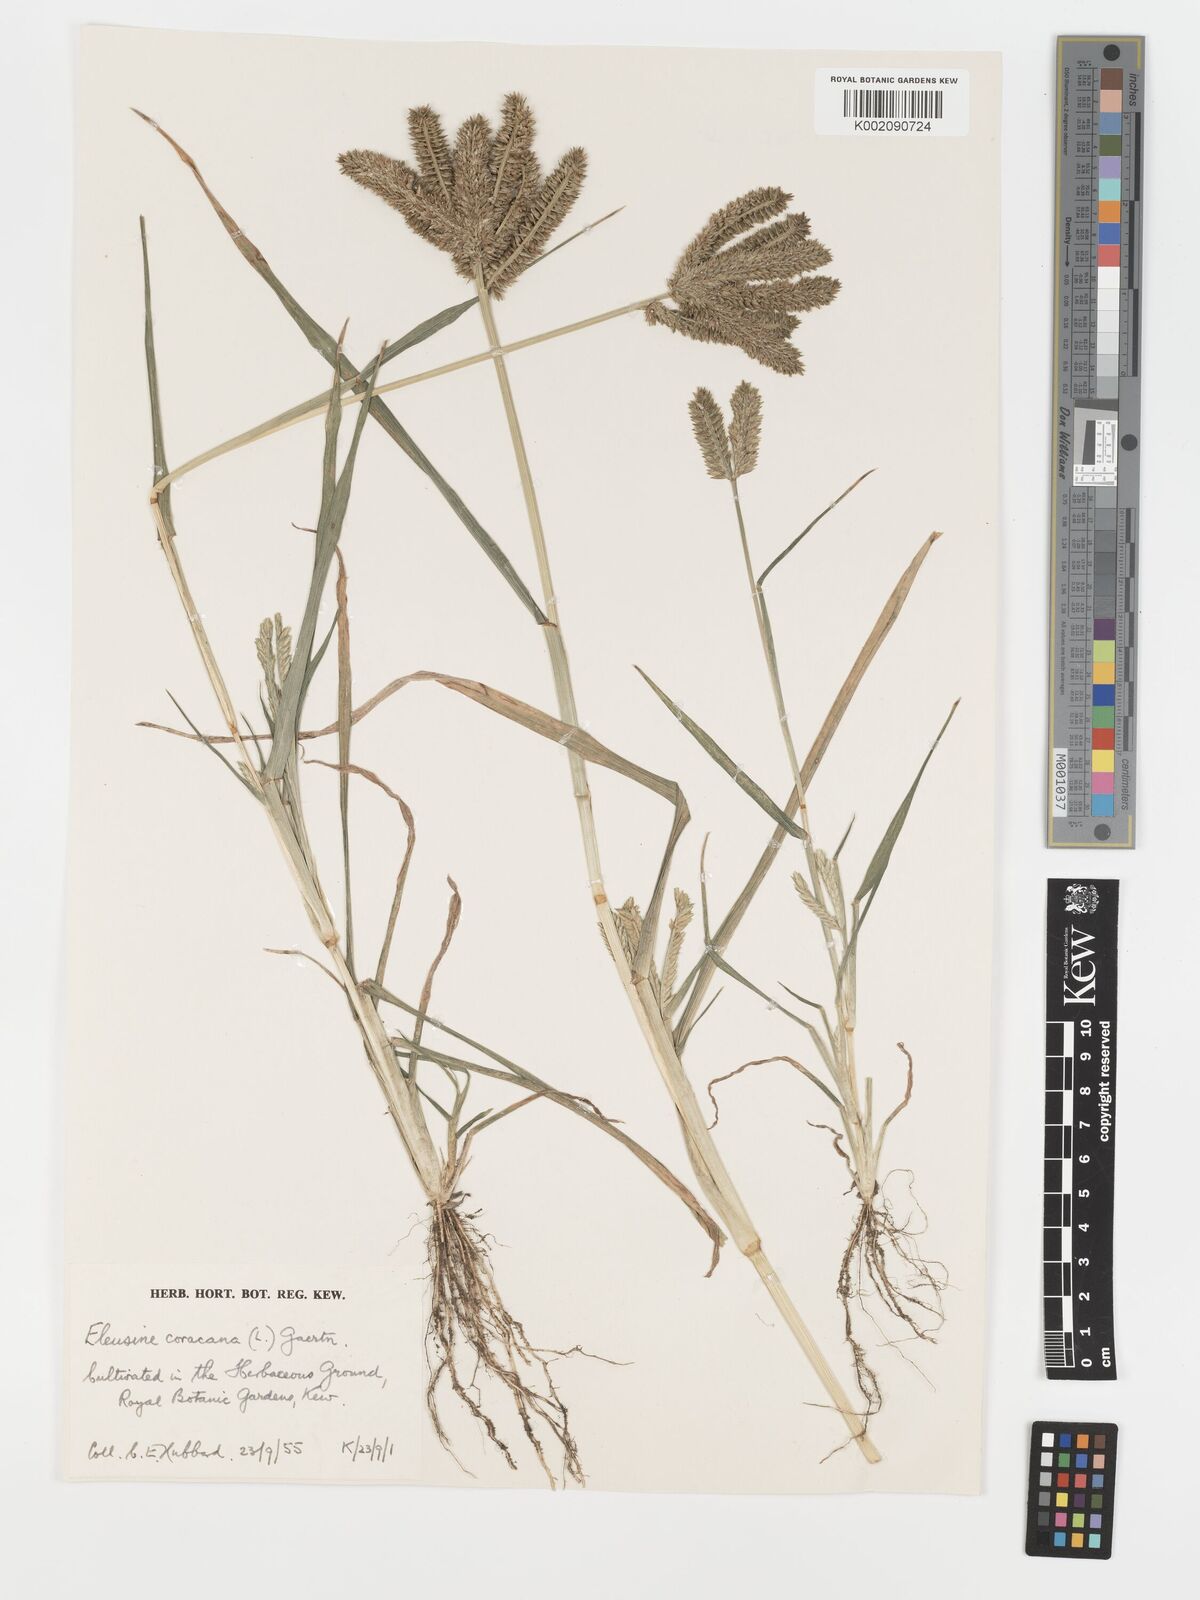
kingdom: Plantae
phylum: Tracheophyta
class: Liliopsida
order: Poales
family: Poaceae
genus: Eleusine
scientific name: Eleusine coracana
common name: Finger millet
